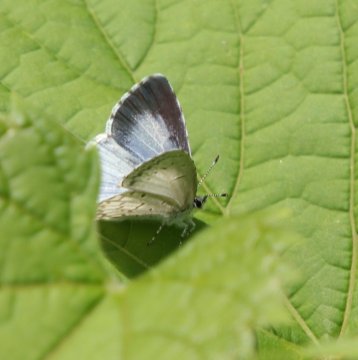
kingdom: Animalia
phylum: Arthropoda
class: Insecta
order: Lepidoptera
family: Lycaenidae
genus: Cyaniris
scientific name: Cyaniris neglecta
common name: Summer Azure
